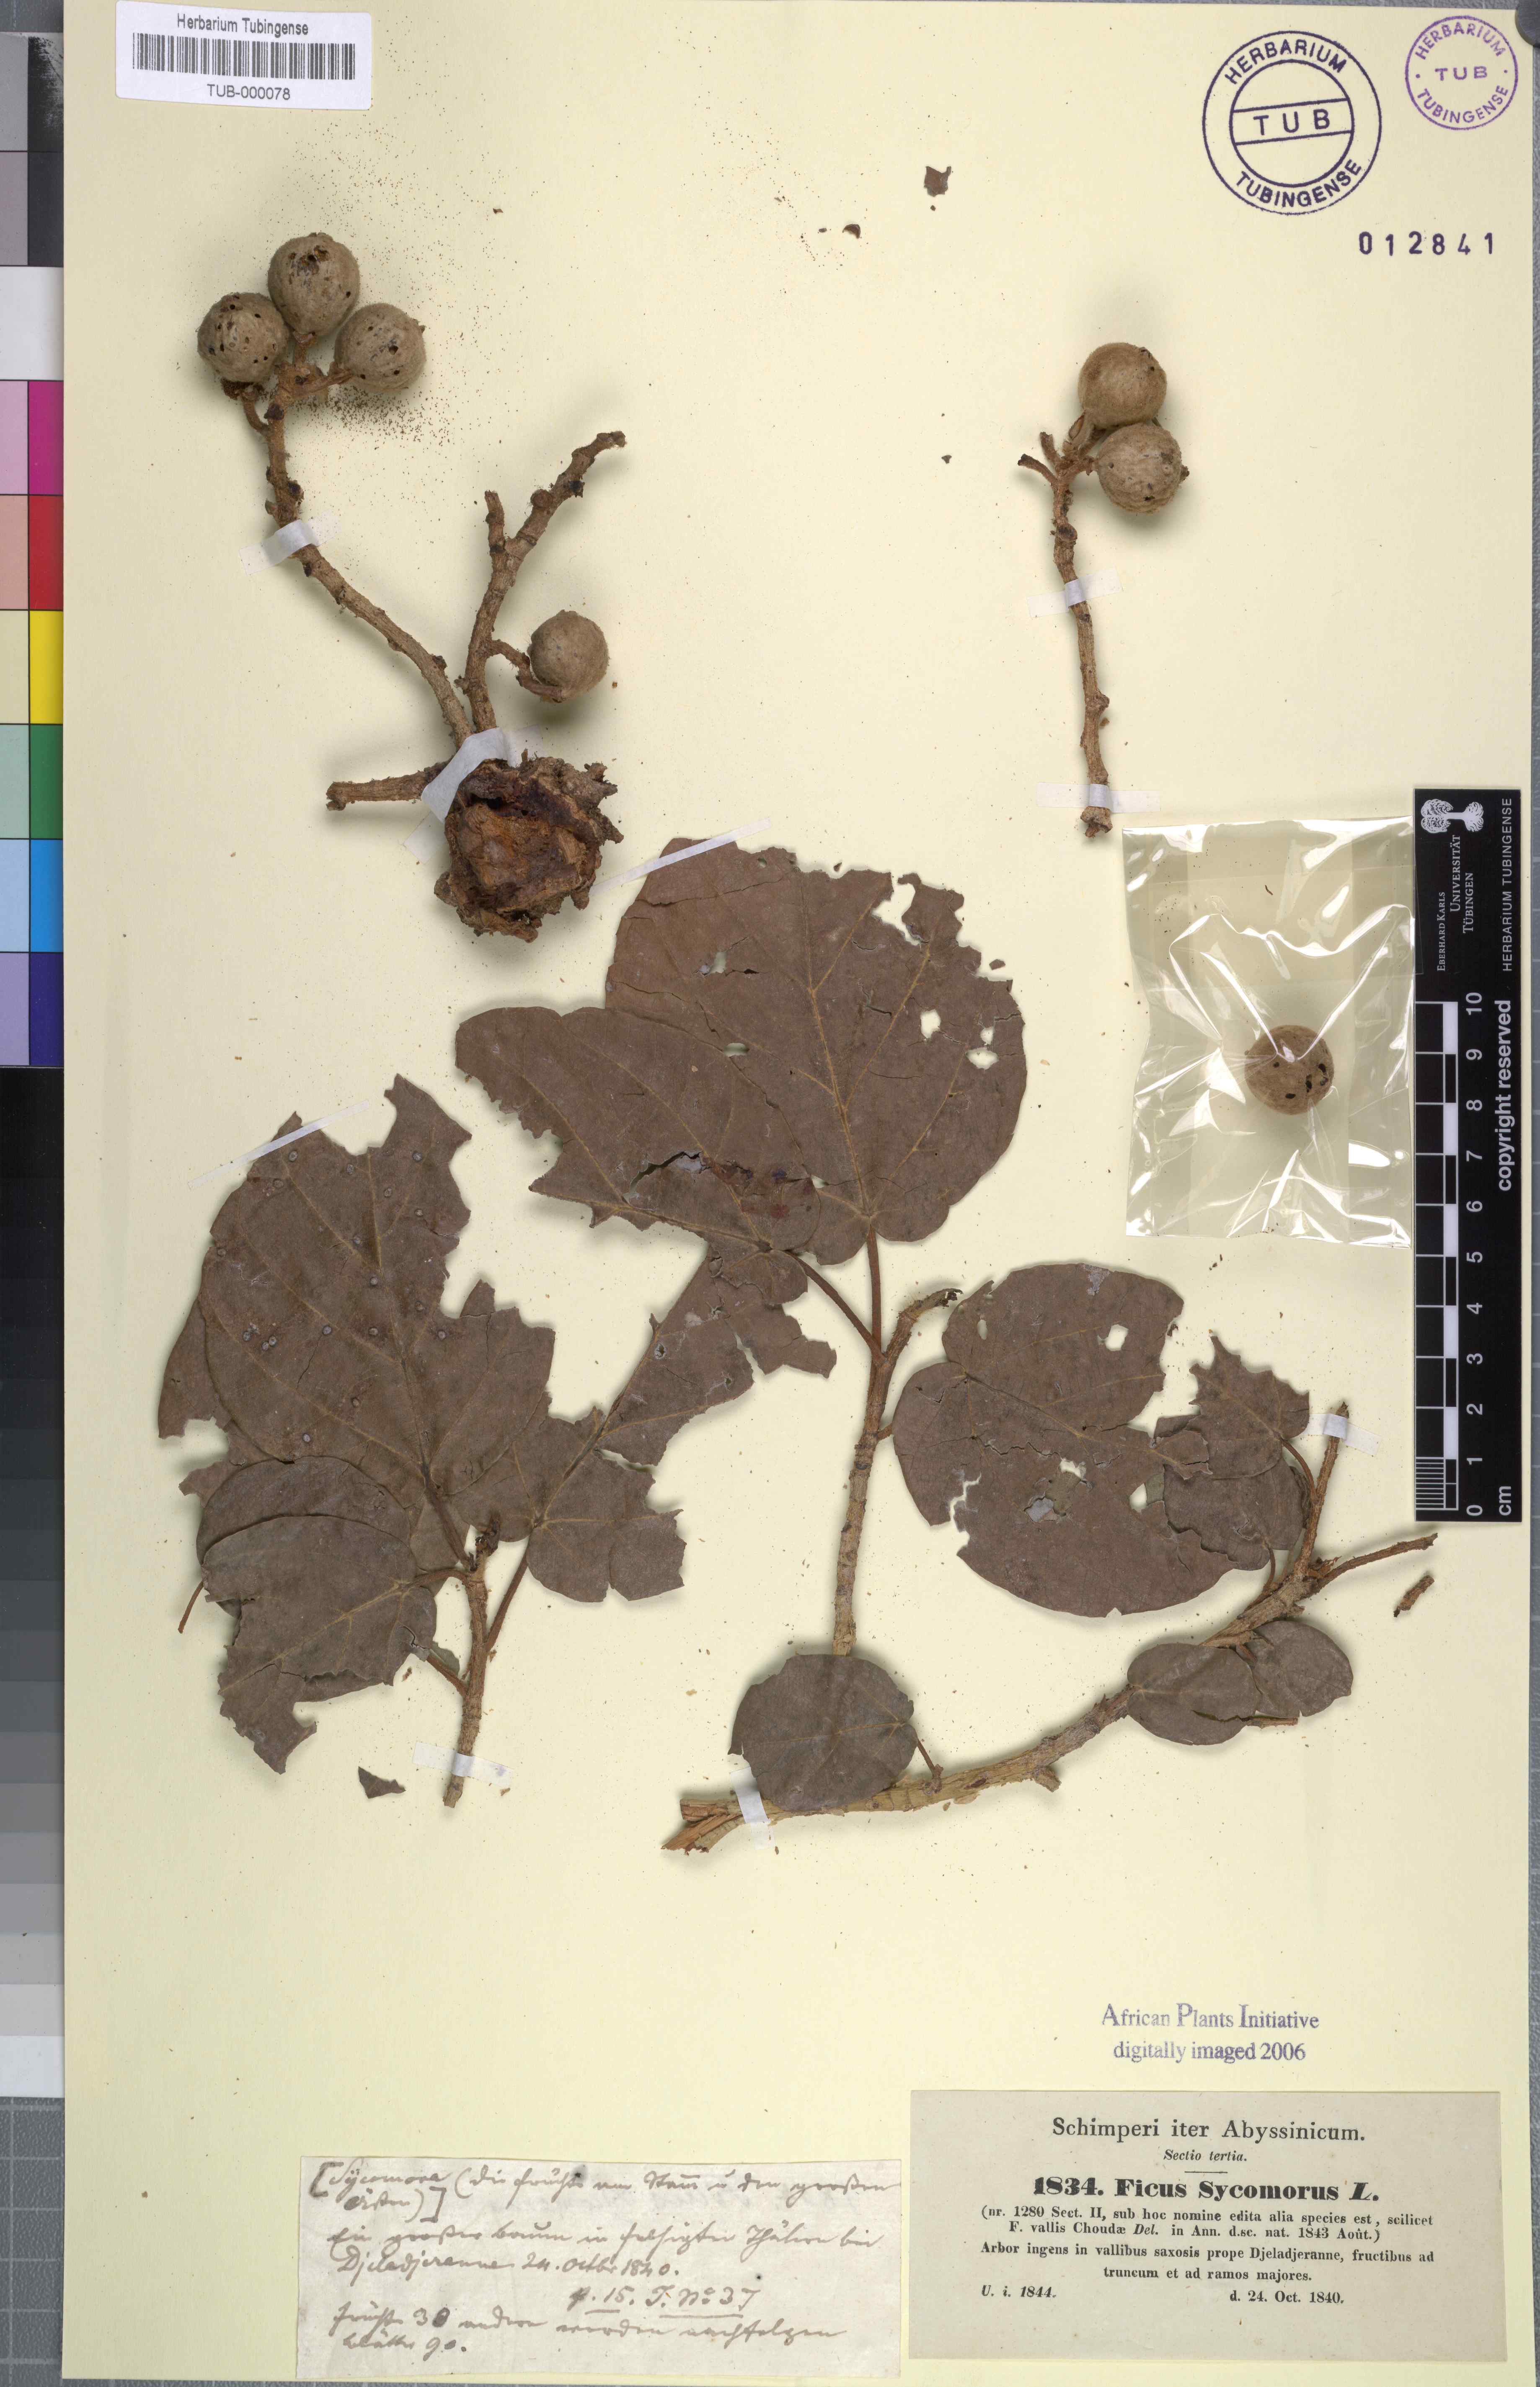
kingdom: Plantae
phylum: Tracheophyta
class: Magnoliopsida
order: Rosales
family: Moraceae
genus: Ficus
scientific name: Ficus sycomorus
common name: Sycomore
